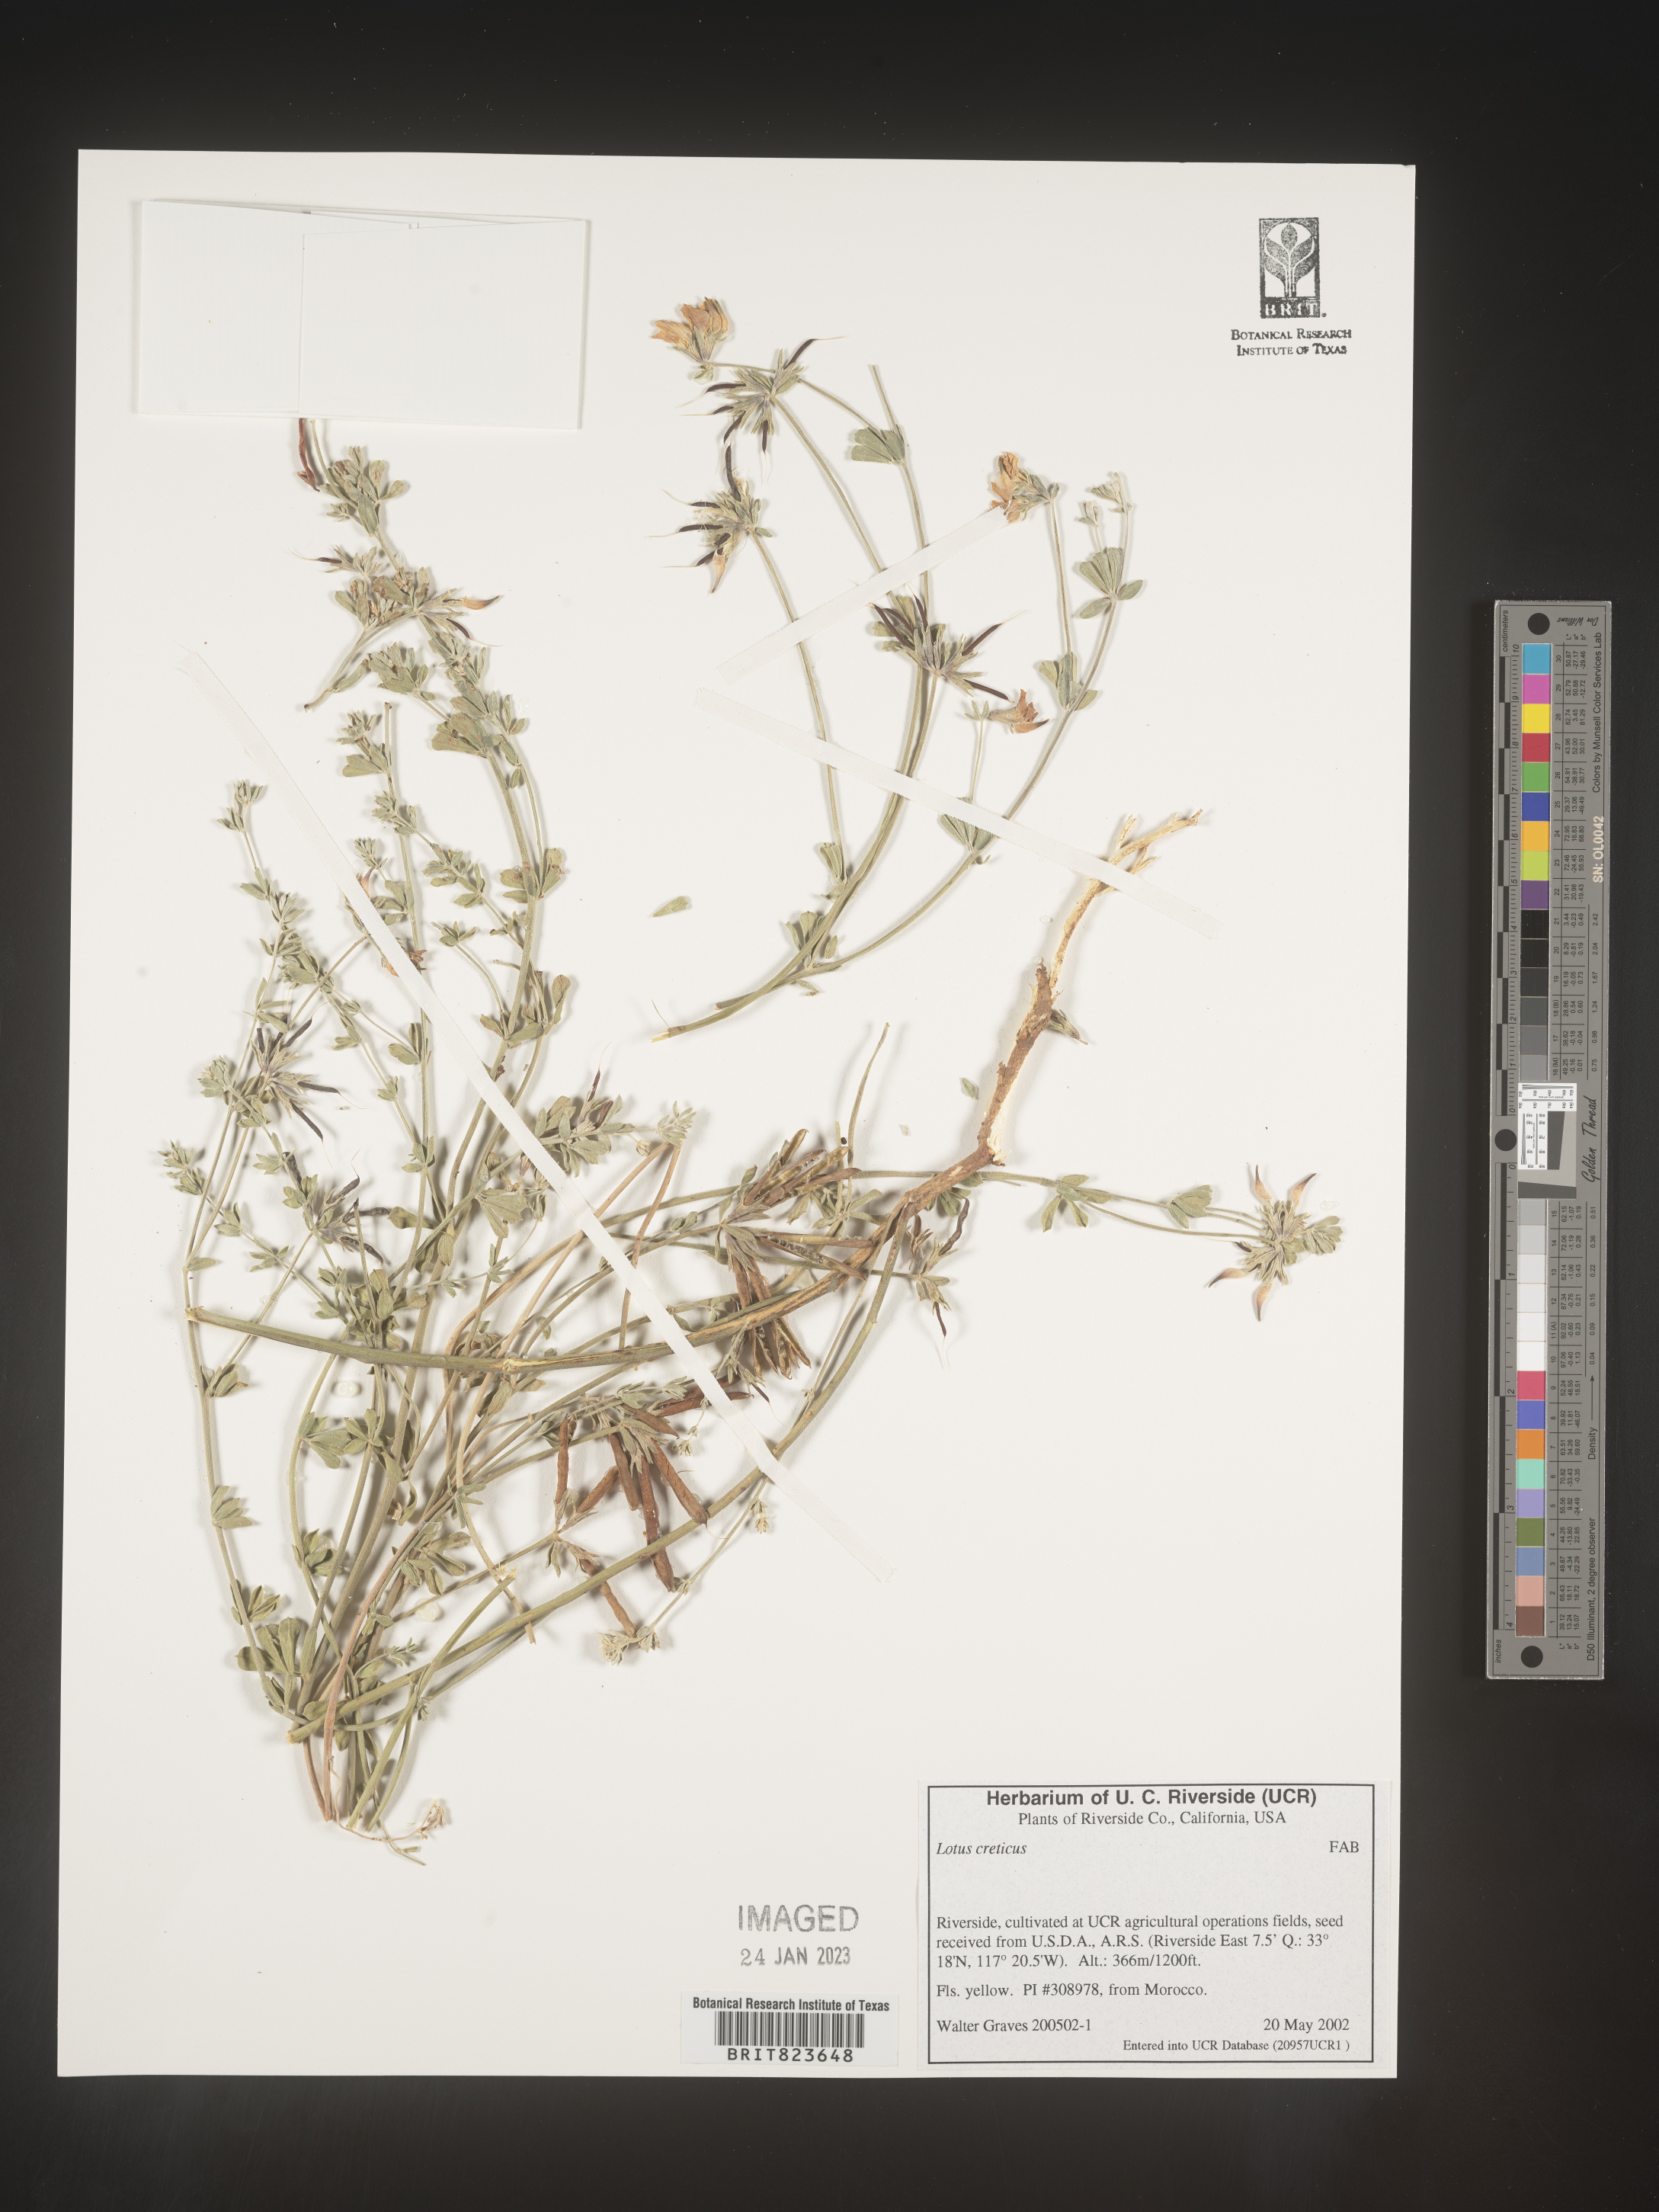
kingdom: Plantae
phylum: Tracheophyta
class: Magnoliopsida
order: Fabales
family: Fabaceae
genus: Lotus
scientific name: Lotus
